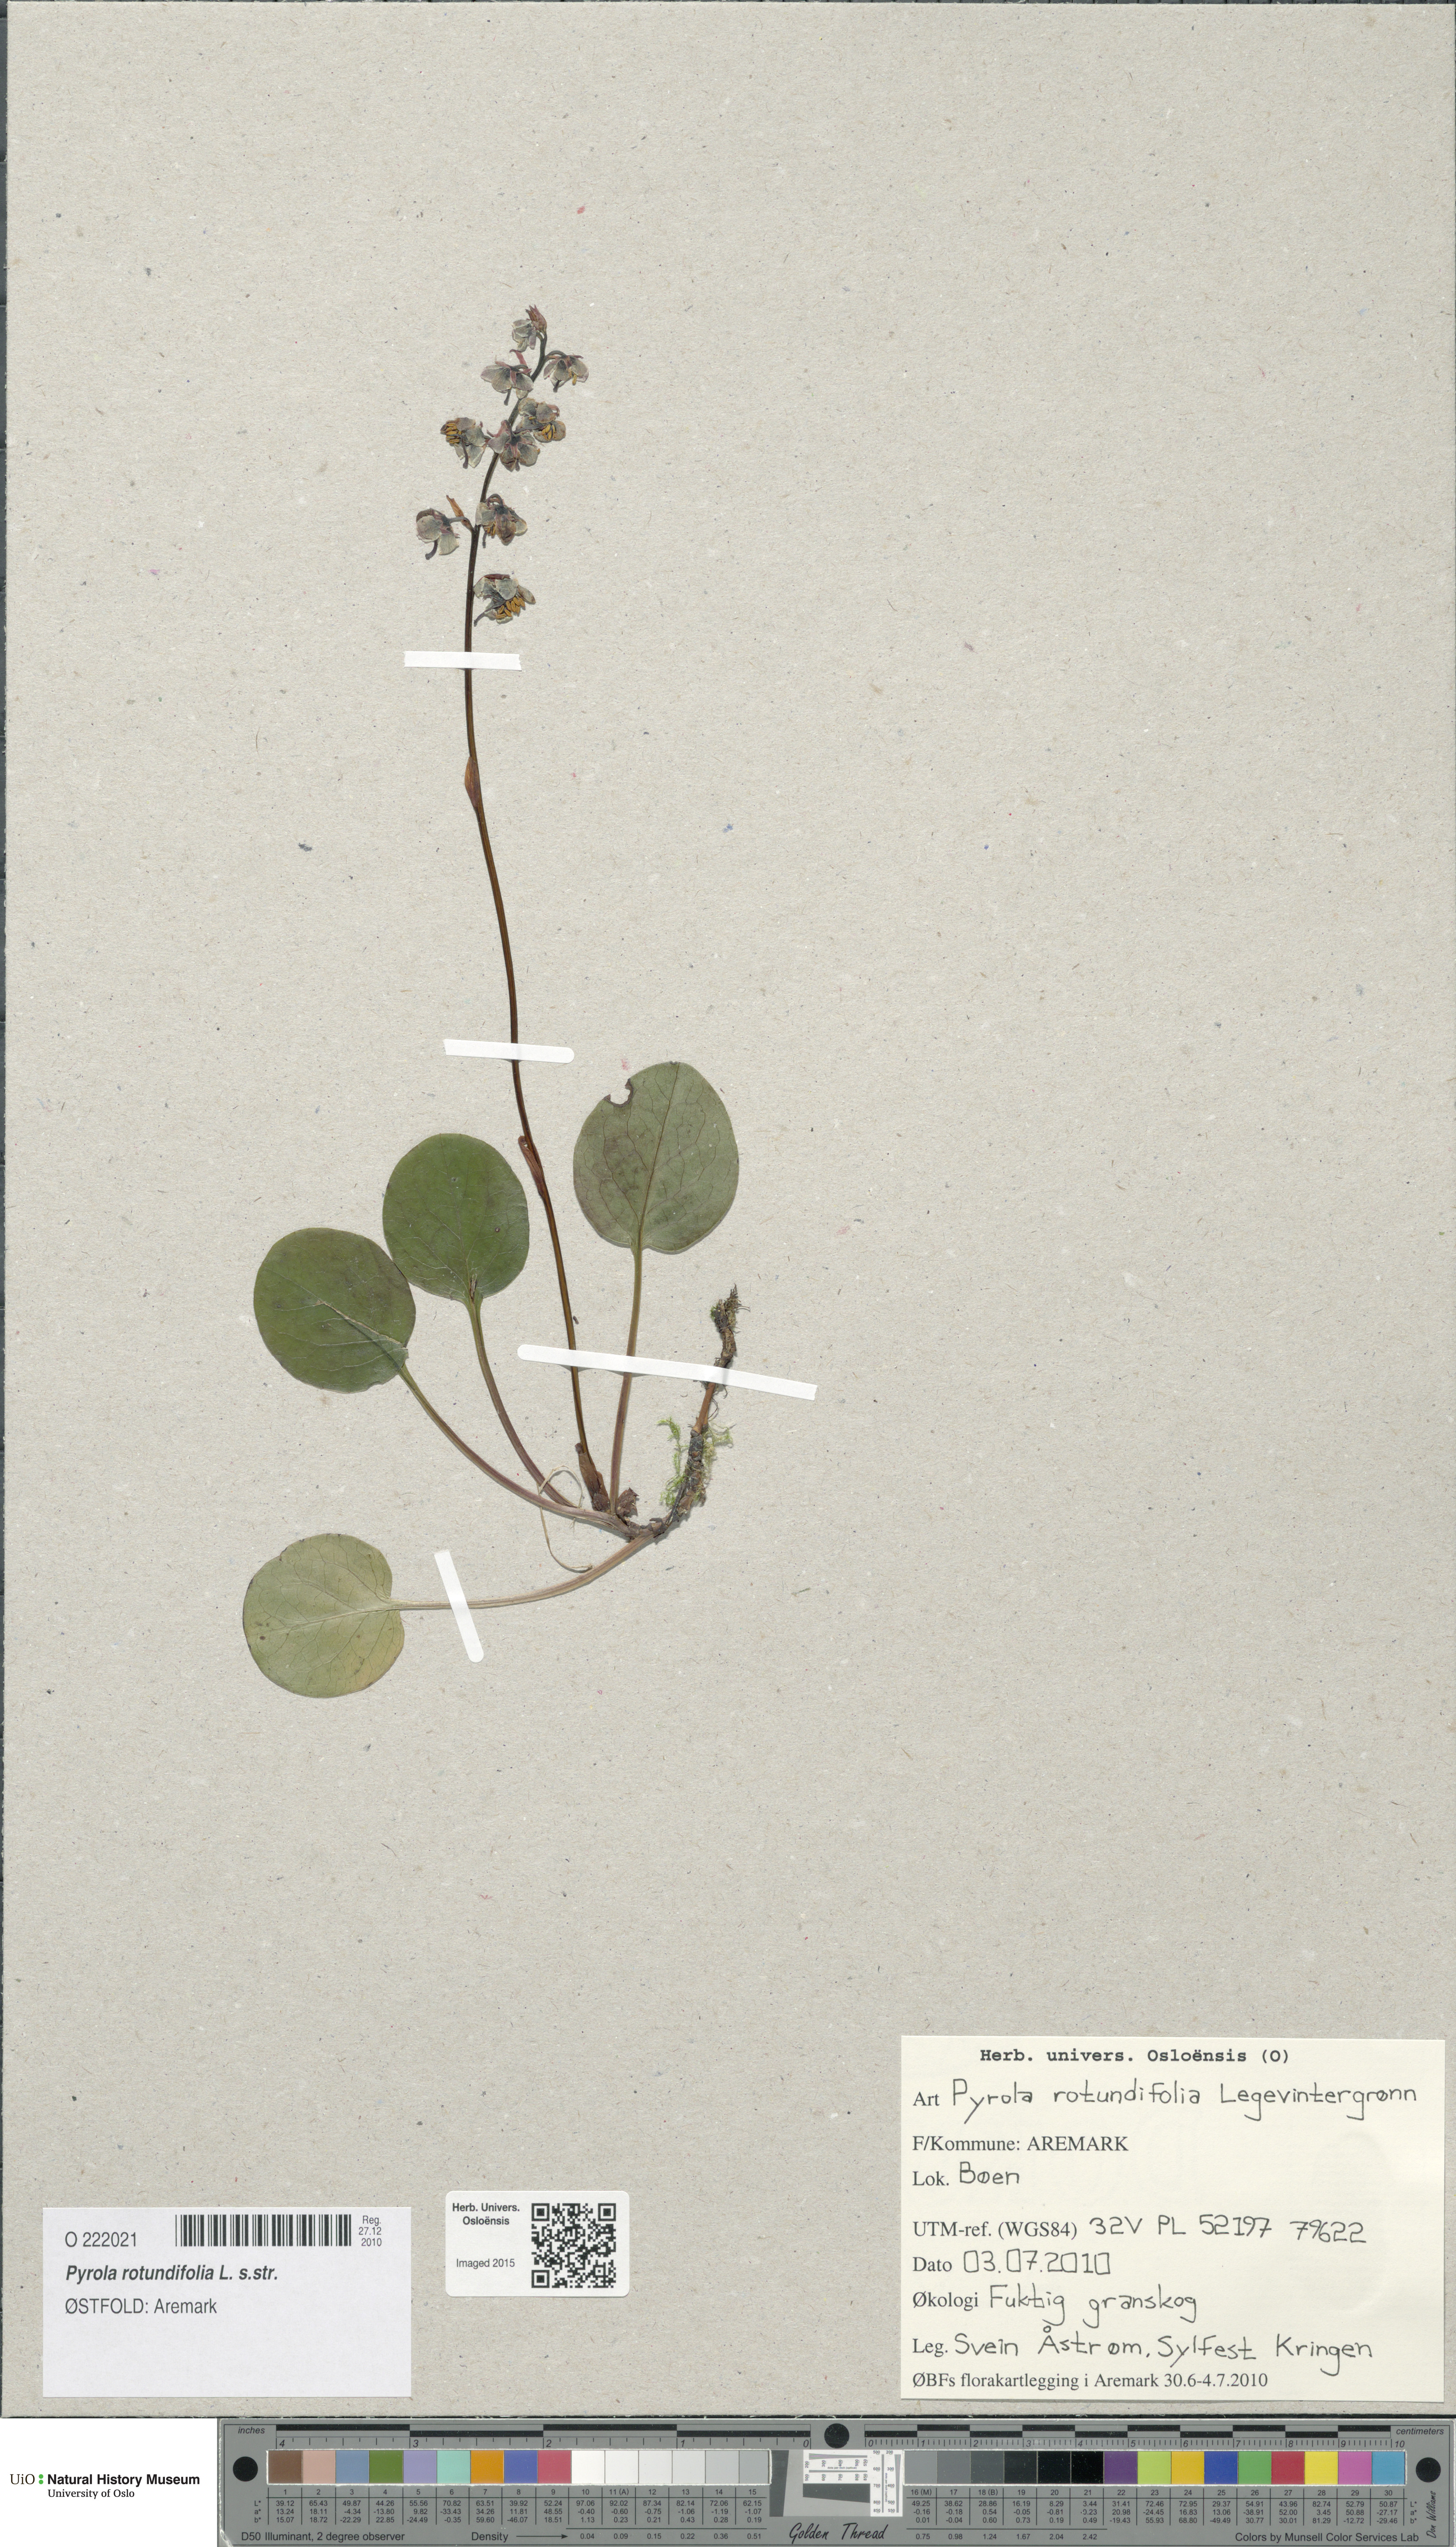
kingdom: Plantae
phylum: Tracheophyta
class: Magnoliopsida
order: Ericales
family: Ericaceae
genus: Pyrola
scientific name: Pyrola rotundifolia
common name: Round-leaved wintergreen
